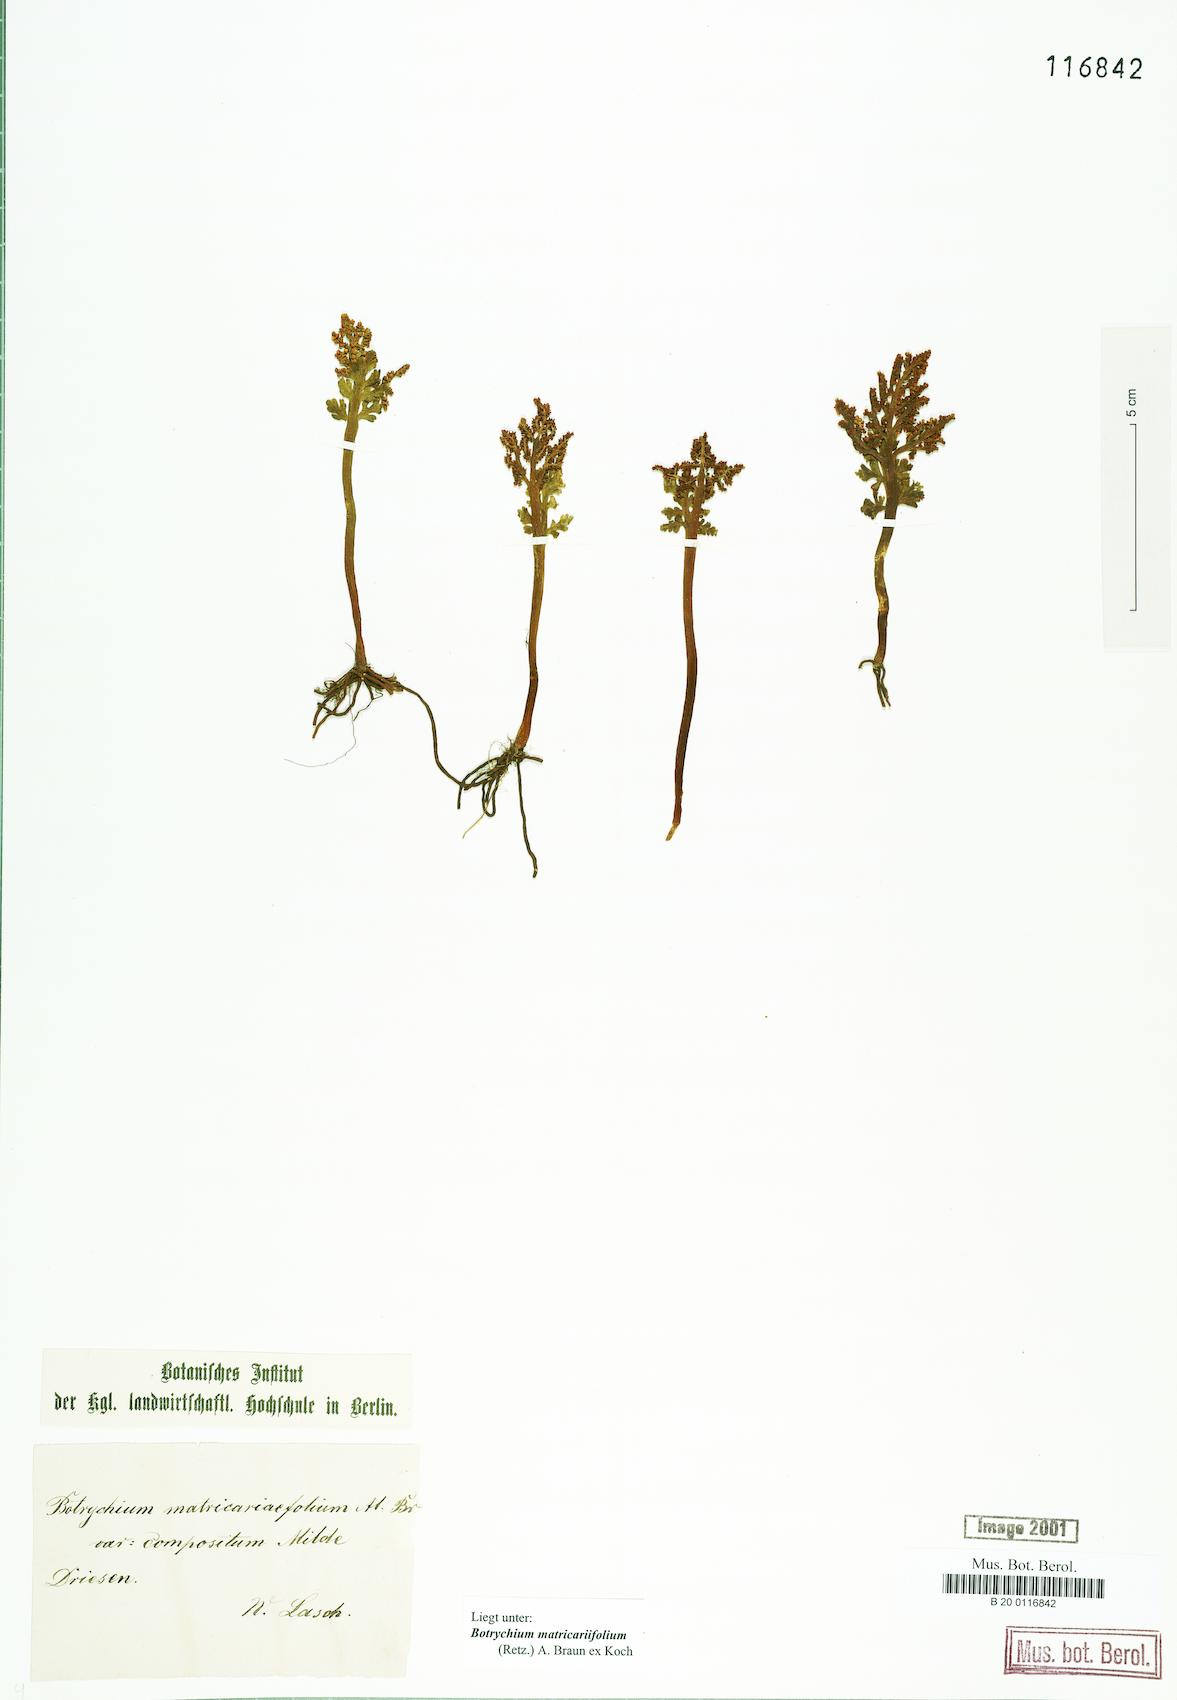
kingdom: Plantae
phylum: Tracheophyta
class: Polypodiopsida
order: Ophioglossales
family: Ophioglossaceae
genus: Botrychium
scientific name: Botrychium matricariifolium
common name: Branched moonwort
